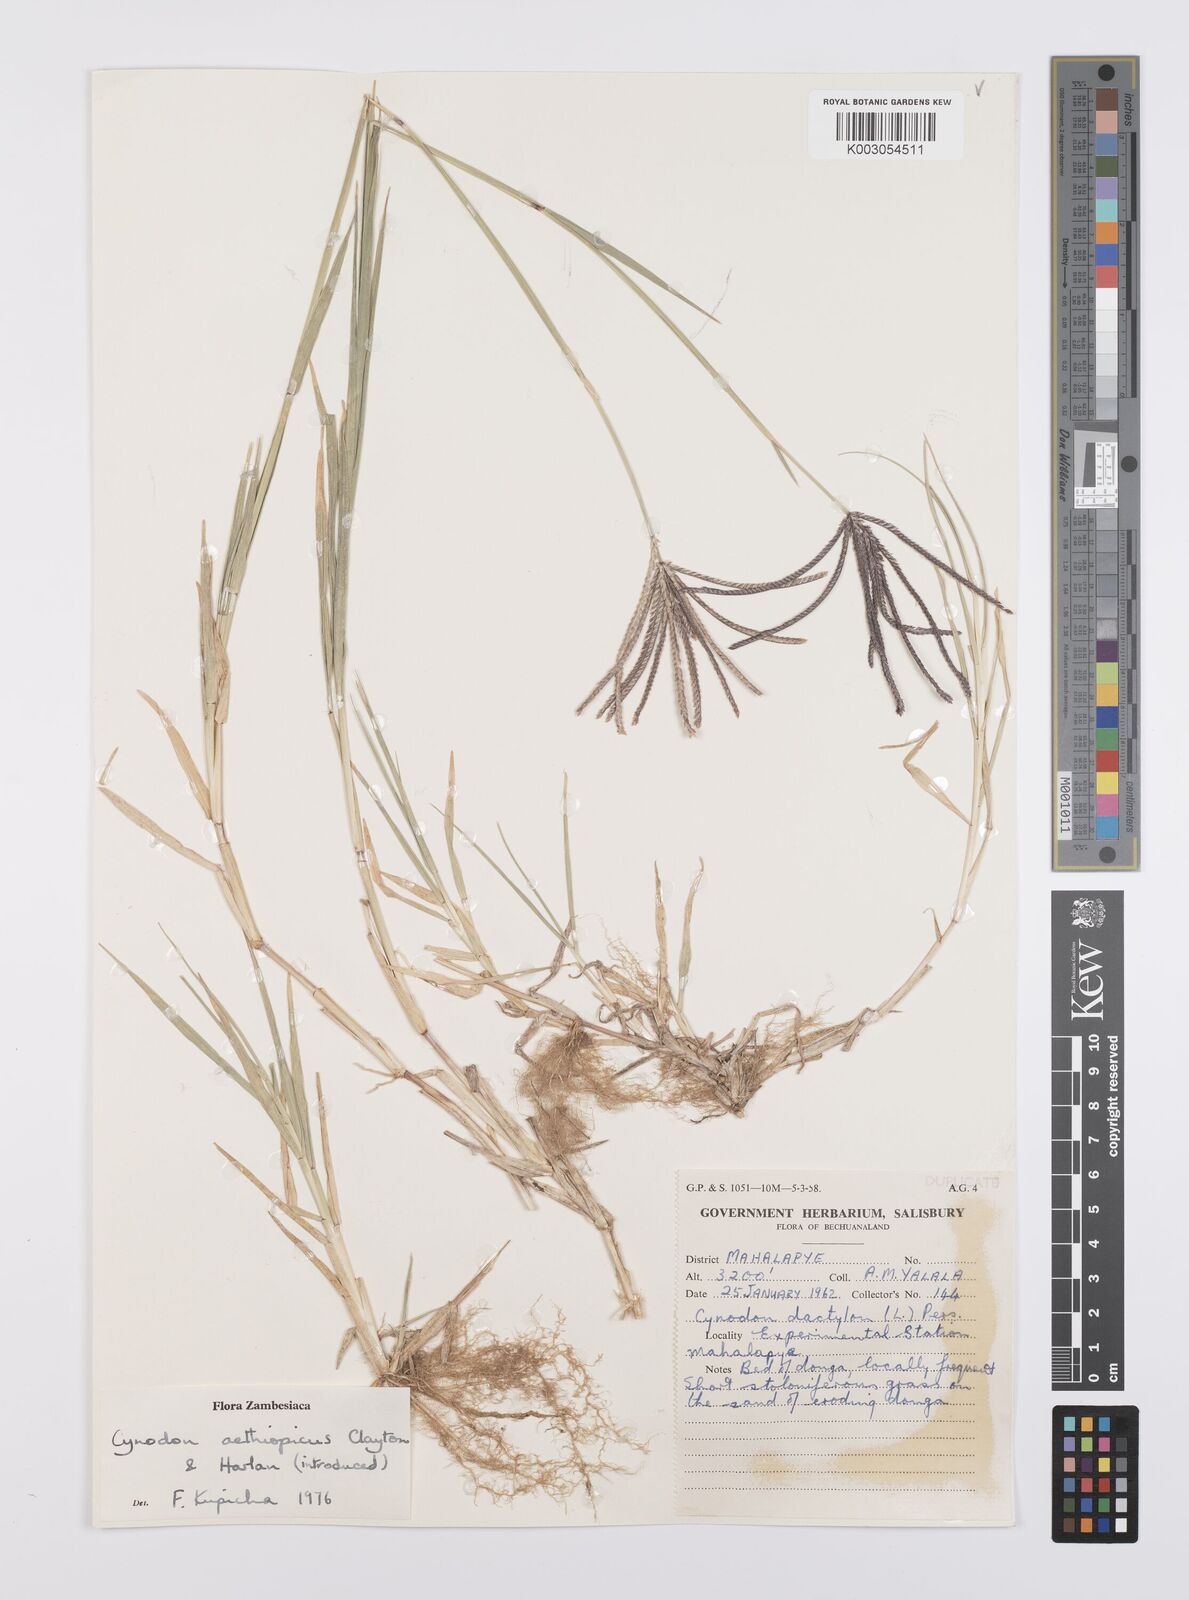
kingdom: Plantae
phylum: Tracheophyta
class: Liliopsida
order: Poales
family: Poaceae
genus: Cynodon
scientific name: Cynodon aethiopicus
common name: Ethiopian dogstooth grass
